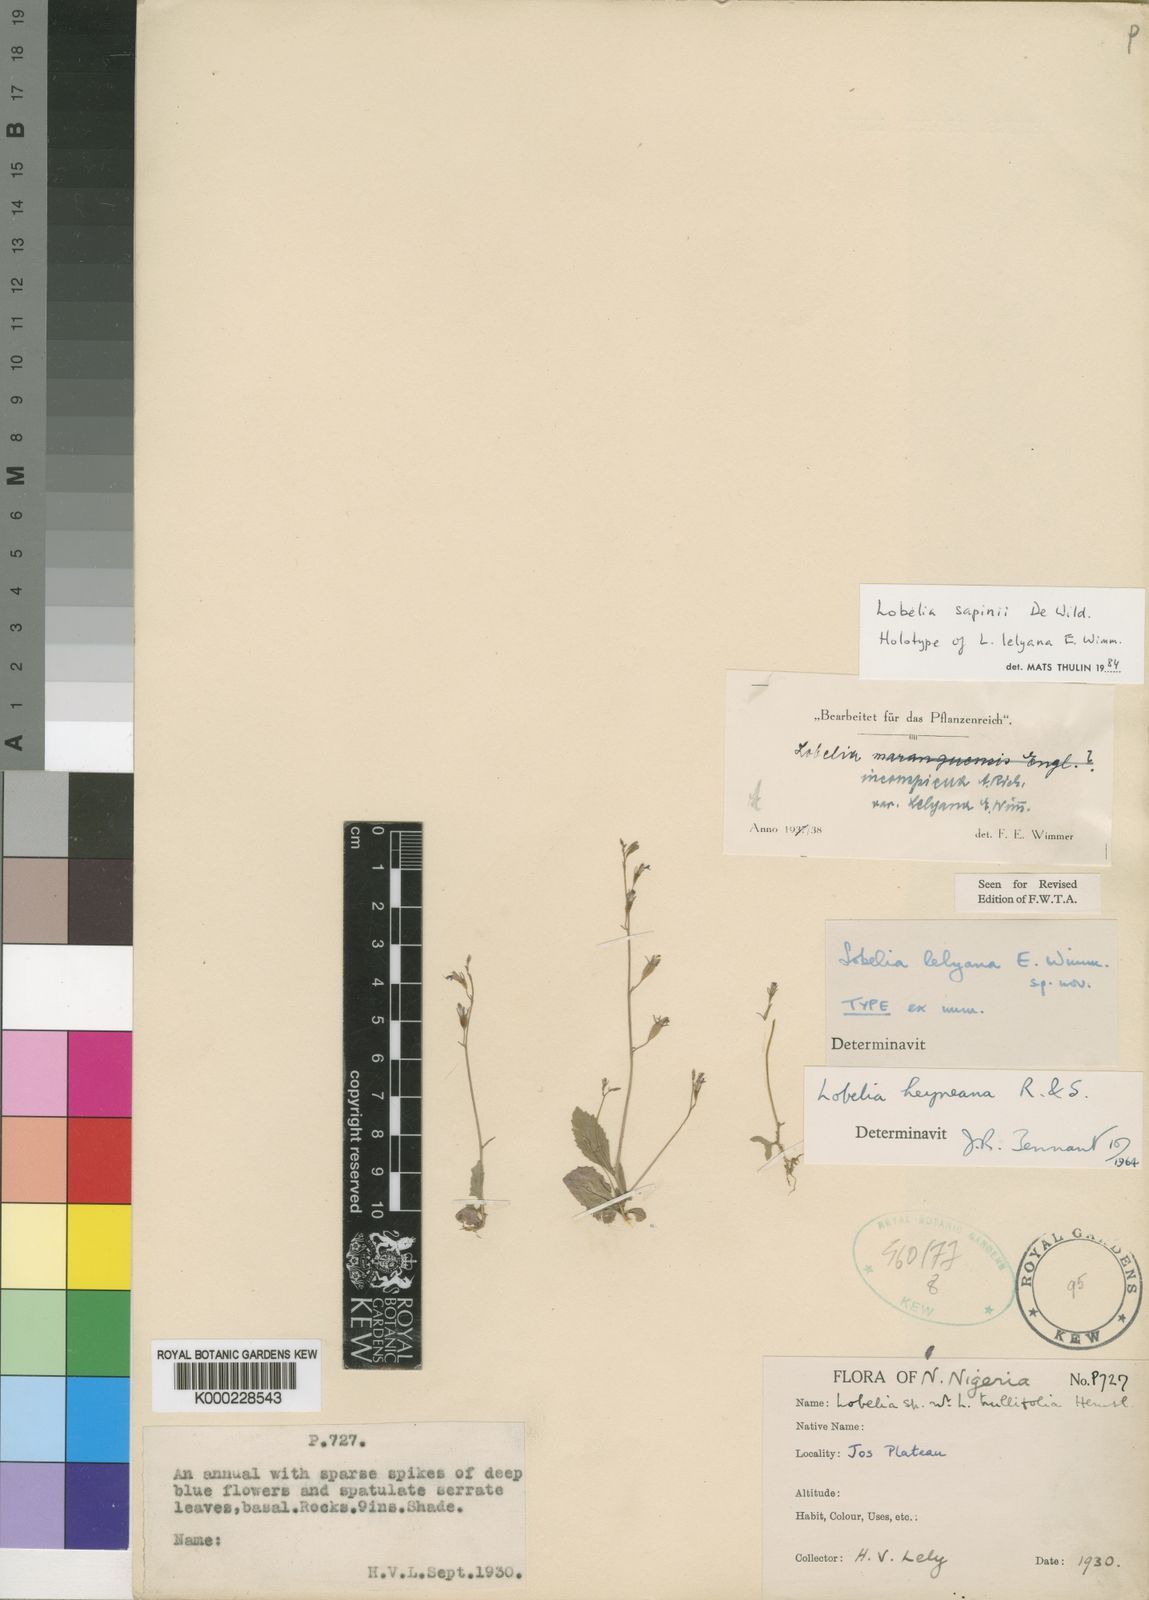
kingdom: Plantae
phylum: Tracheophyta
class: Magnoliopsida
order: Asterales
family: Campanulaceae
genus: Lobelia
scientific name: Lobelia sapinii
